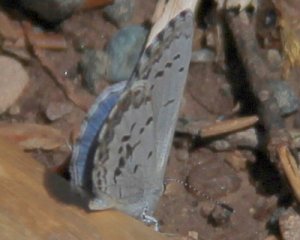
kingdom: Animalia
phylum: Arthropoda
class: Insecta
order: Lepidoptera
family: Lycaenidae
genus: Celastrina
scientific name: Celastrina lucia
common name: Northern Spring Azure
